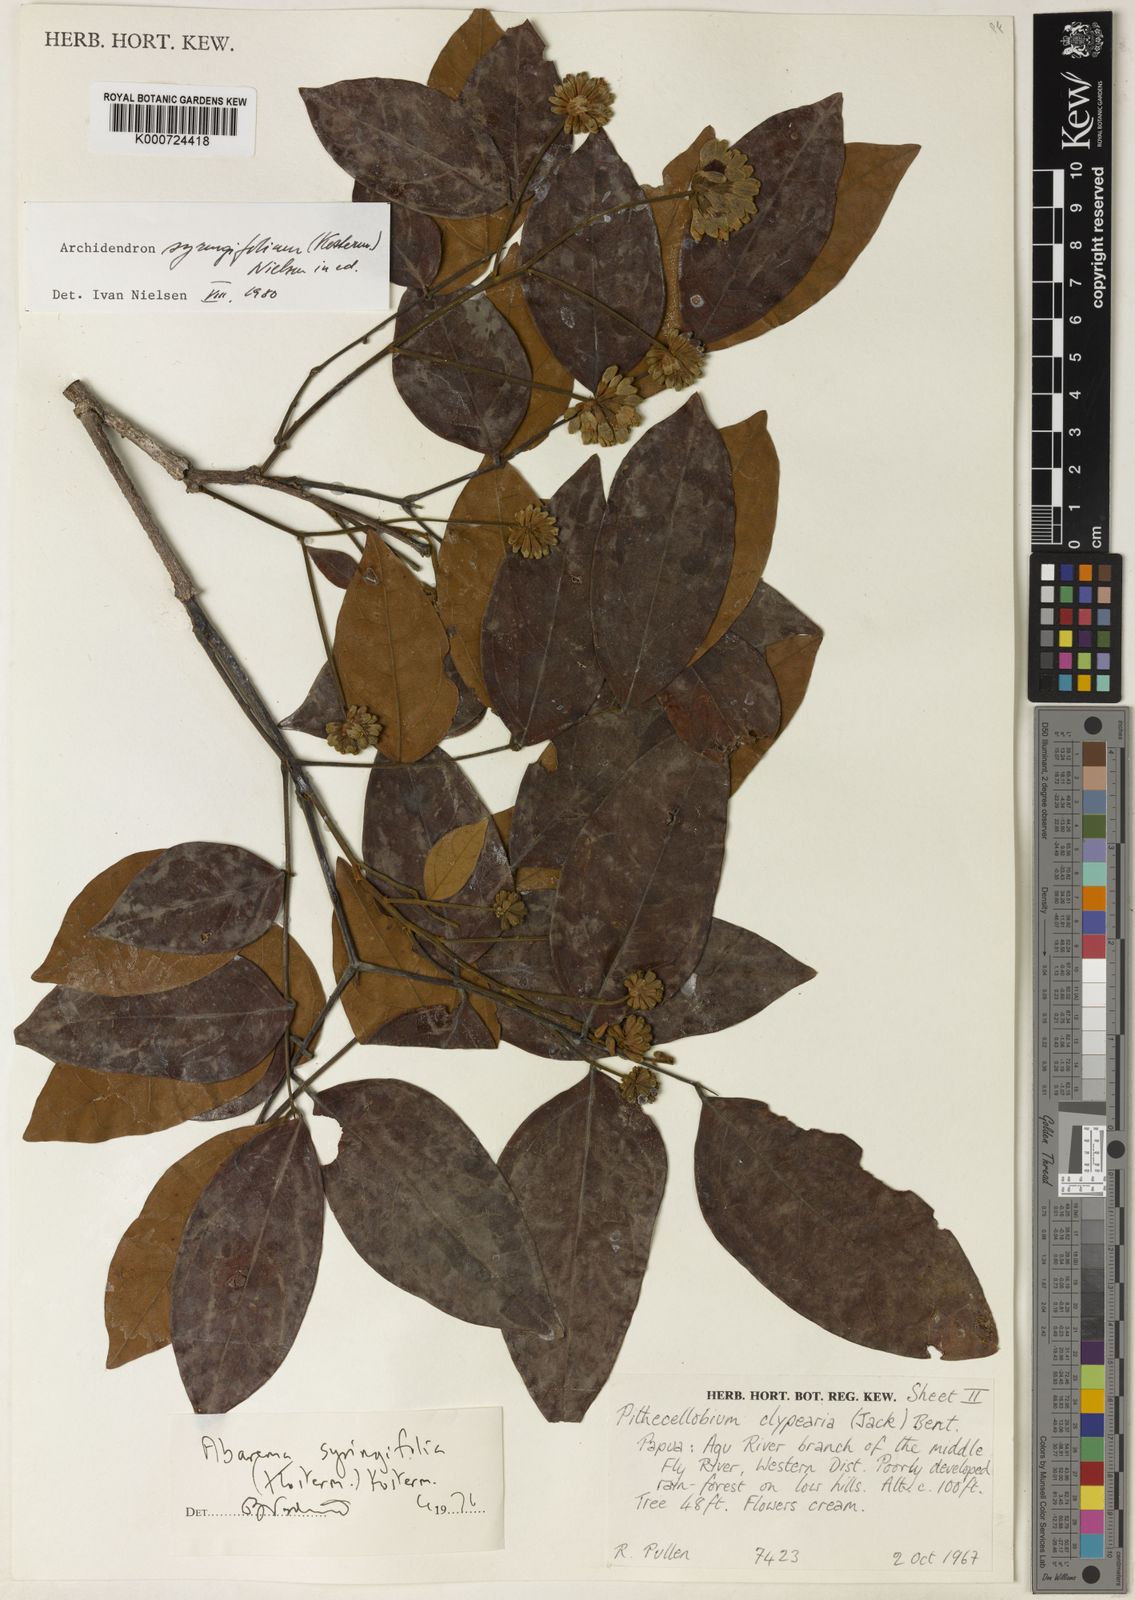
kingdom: Plantae
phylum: Tracheophyta
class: Magnoliopsida
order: Fabales
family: Fabaceae
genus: Archidendron
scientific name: Archidendron syringifolium
